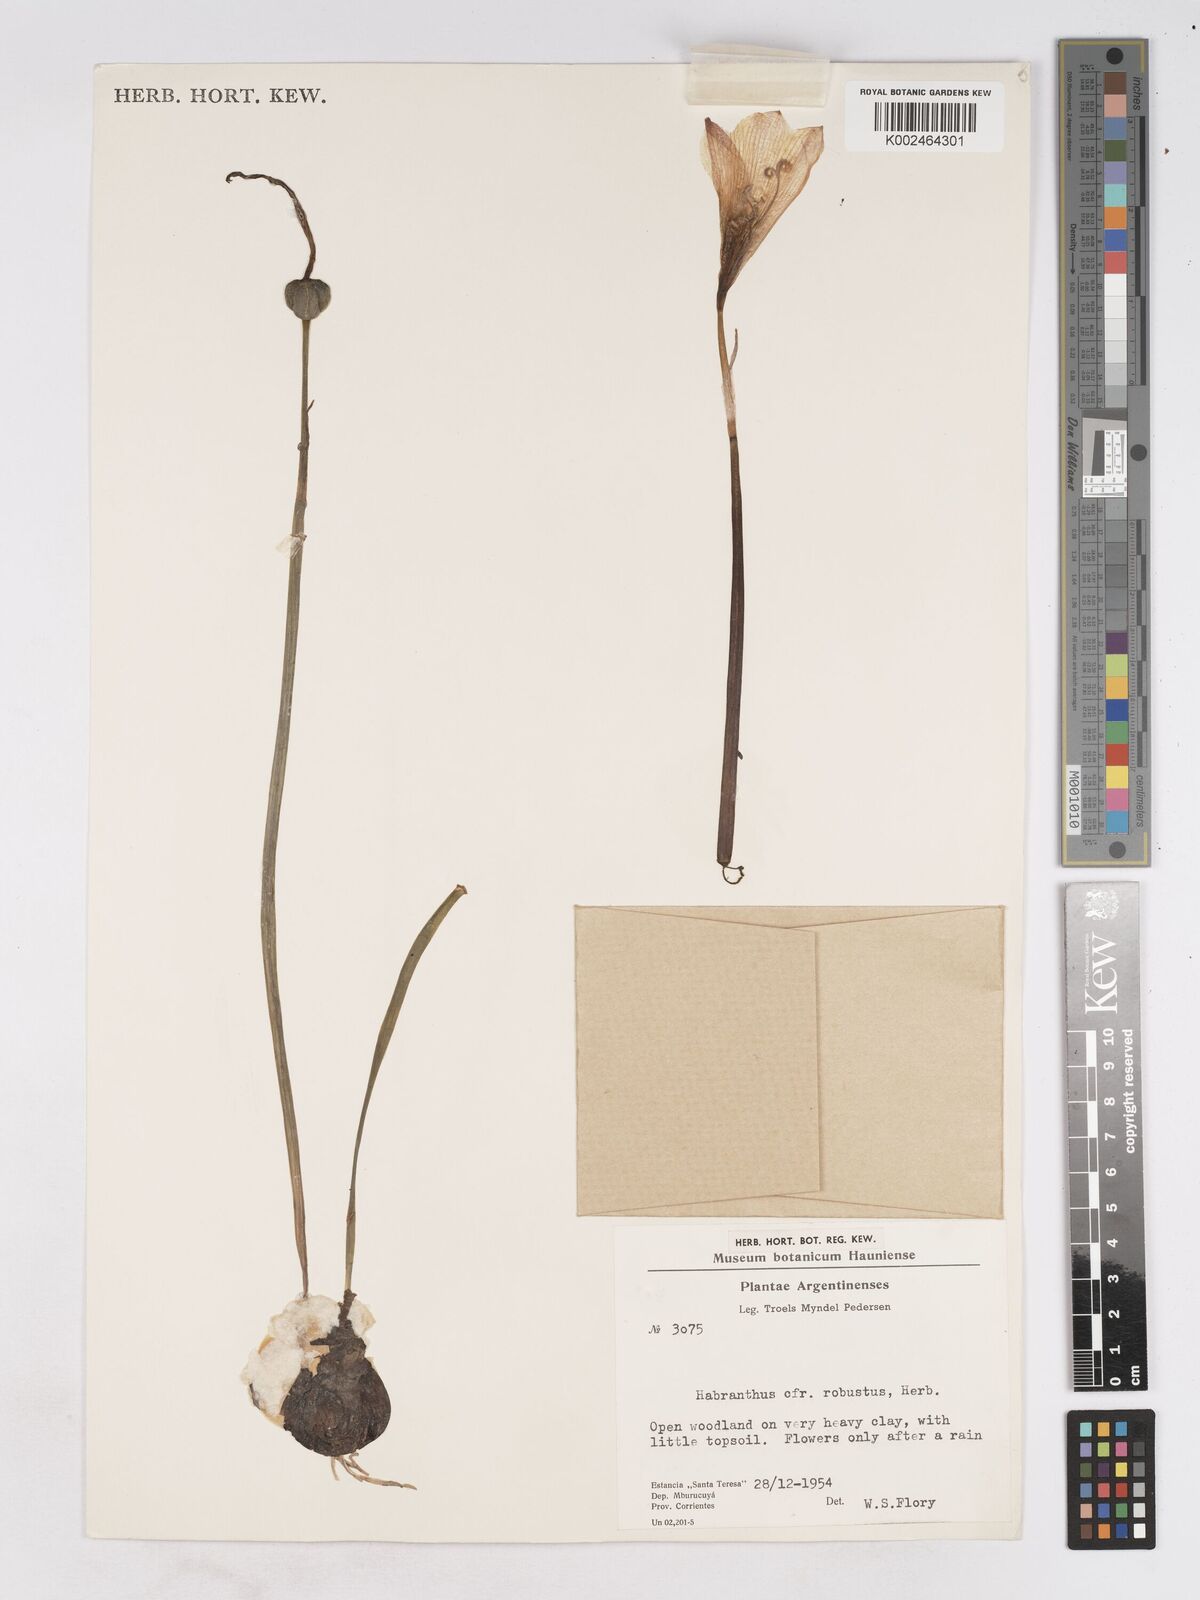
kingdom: Plantae
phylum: Tracheophyta
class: Liliopsida
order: Asparagales
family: Amaryllidaceae
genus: Zephyranthes
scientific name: Zephyranthes robusta
